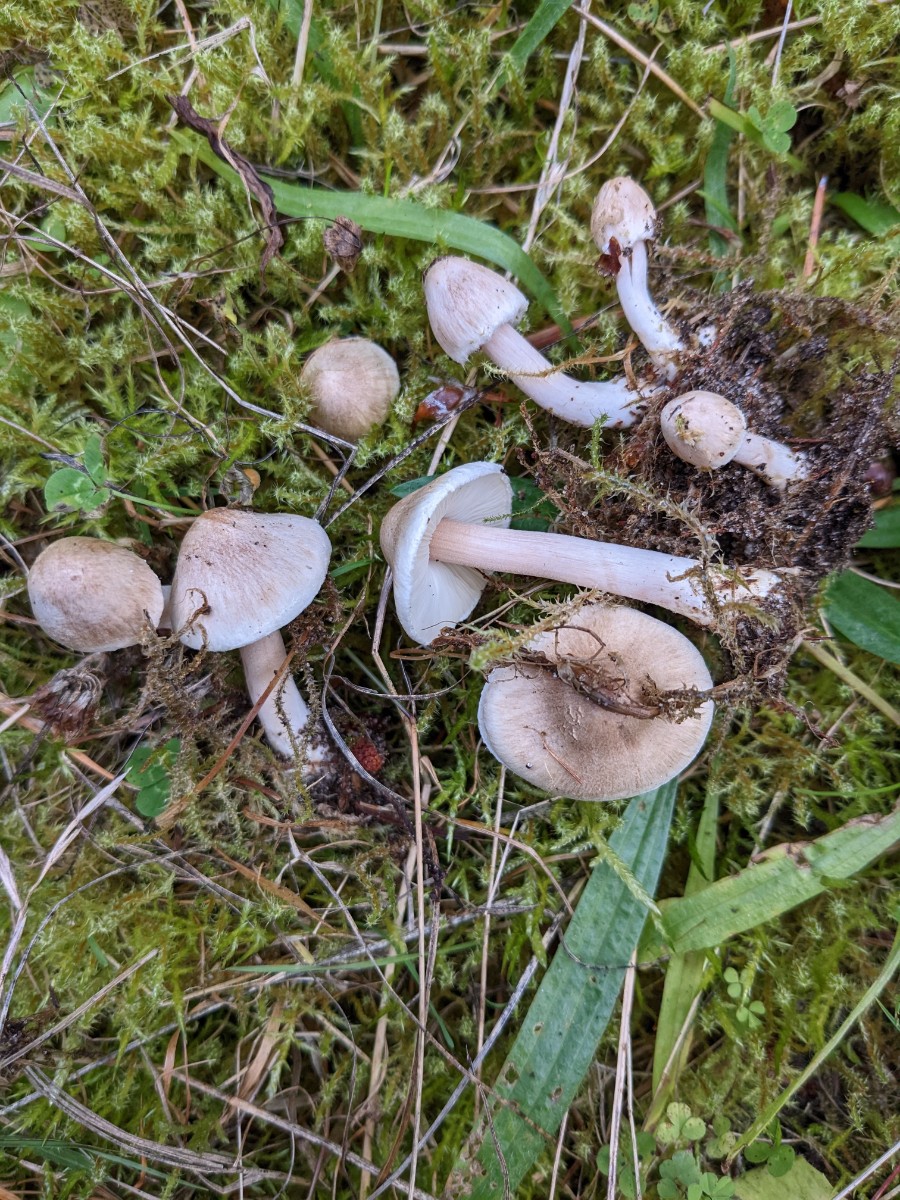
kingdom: Fungi
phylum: Basidiomycota
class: Agaricomycetes
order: Agaricales
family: Inocybaceae
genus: Inocybe
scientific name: Inocybe sindonia
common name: bleg trævlhat
